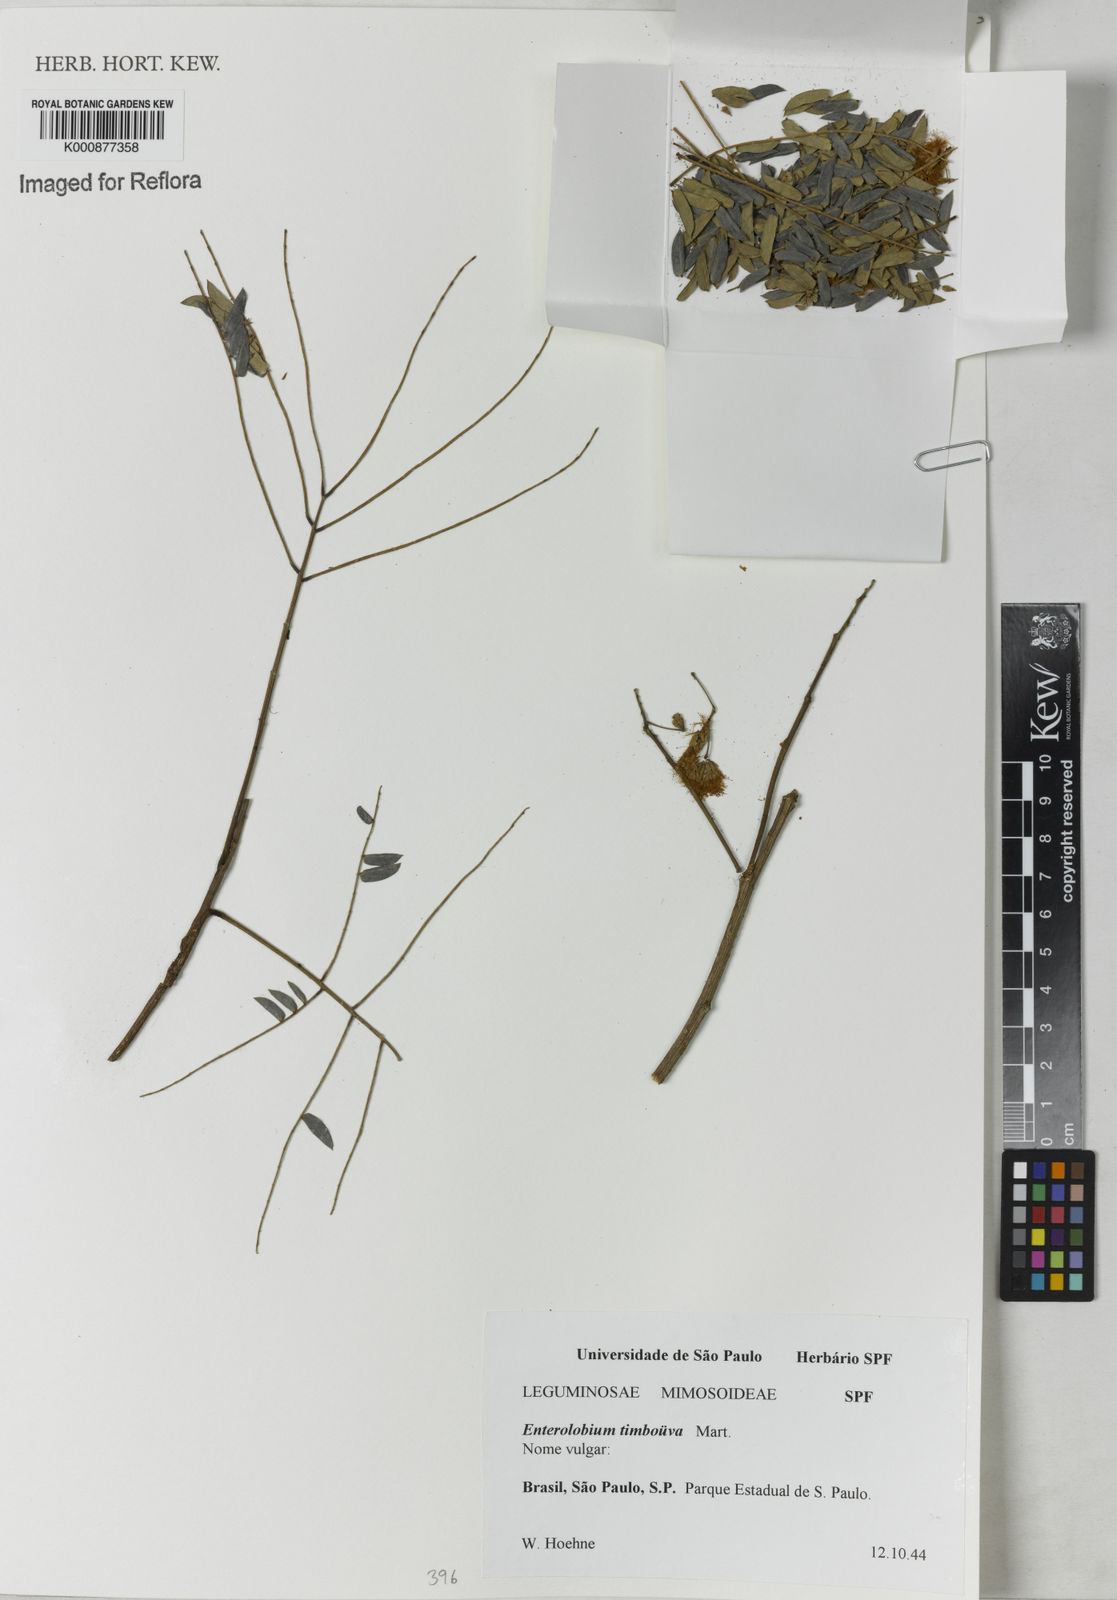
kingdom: Plantae
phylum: Tracheophyta
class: Magnoliopsida
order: Fabales
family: Fabaceae
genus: Enterolobium
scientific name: Enterolobium timbouva
